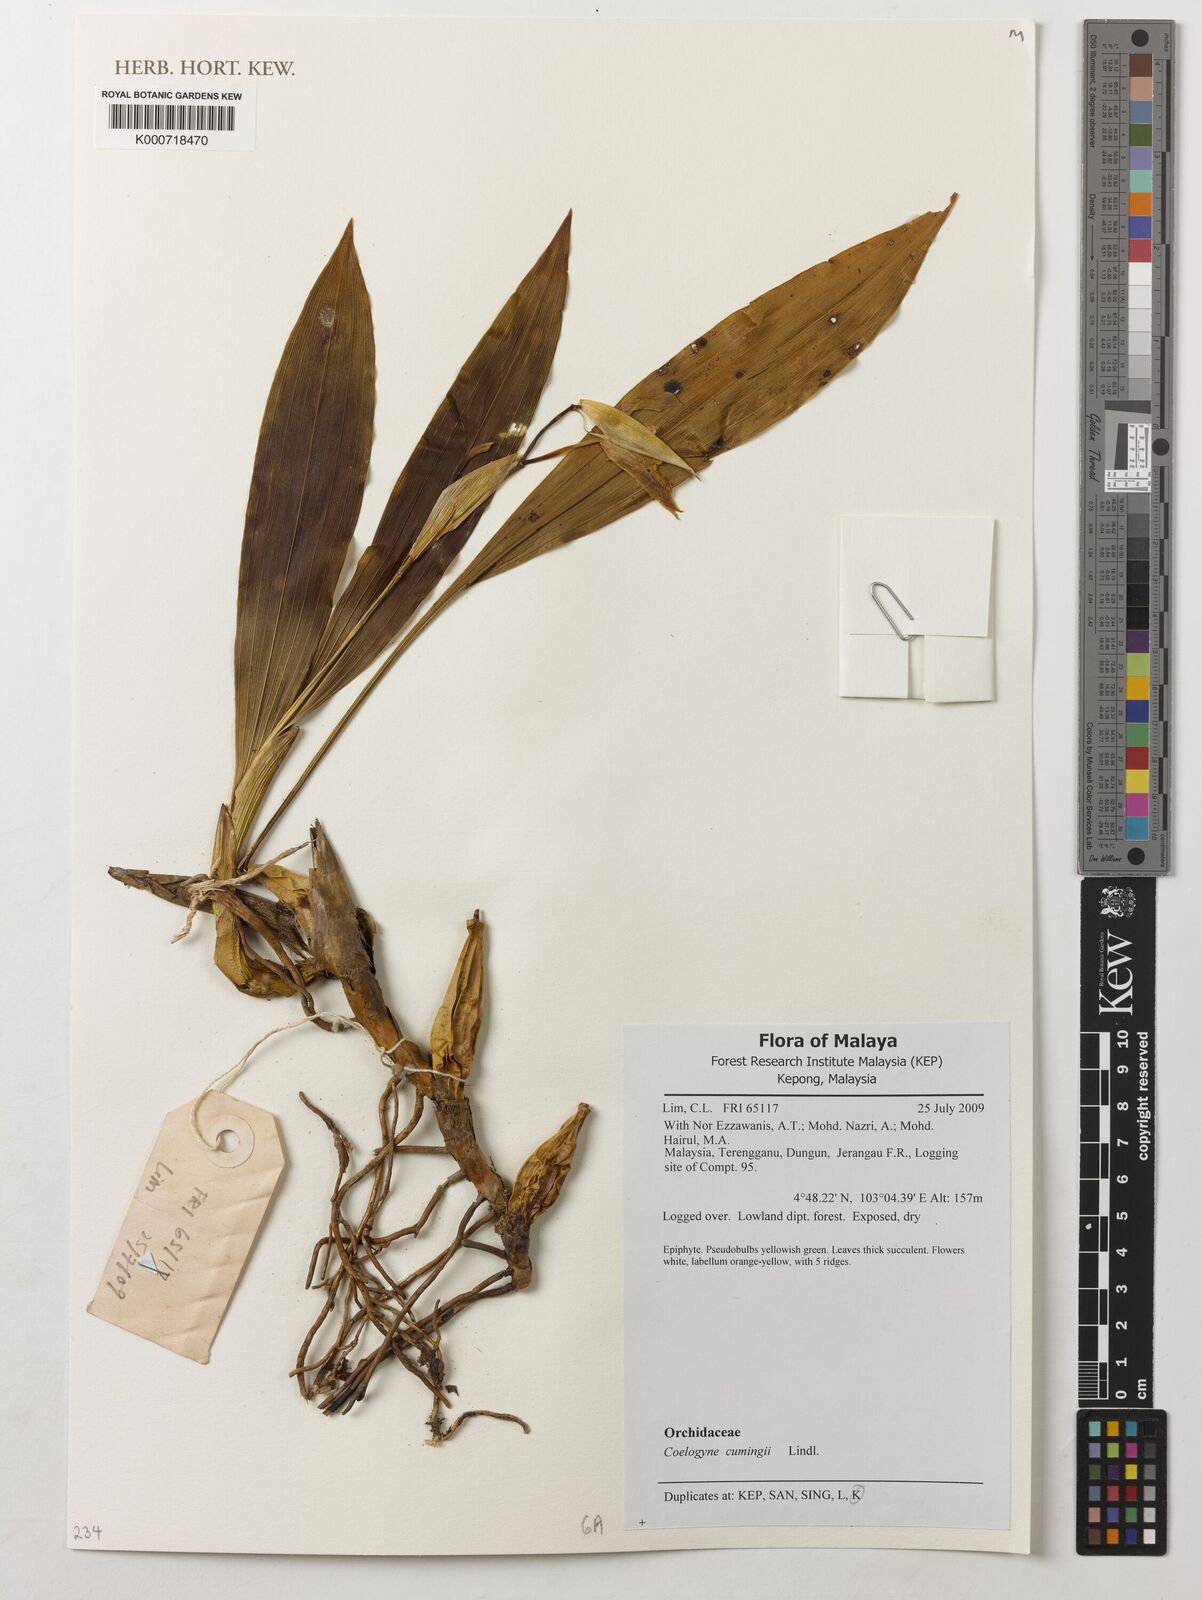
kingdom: Plantae
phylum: Tracheophyta
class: Liliopsida
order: Asparagales
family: Orchidaceae
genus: Coelogyne
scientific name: Coelogyne cumingii
